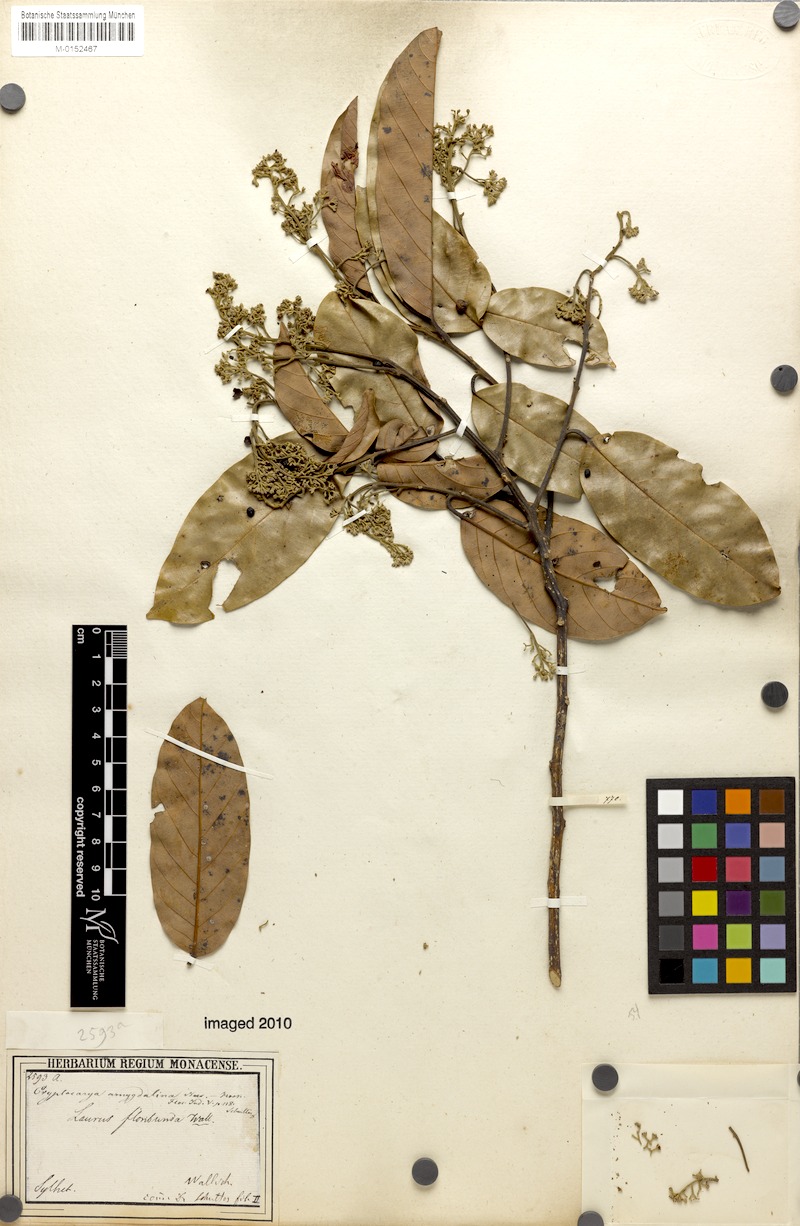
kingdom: Plantae
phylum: Tracheophyta
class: Magnoliopsida
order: Laurales
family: Lauraceae
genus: Cryptocarya
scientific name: Cryptocarya amygdalina
